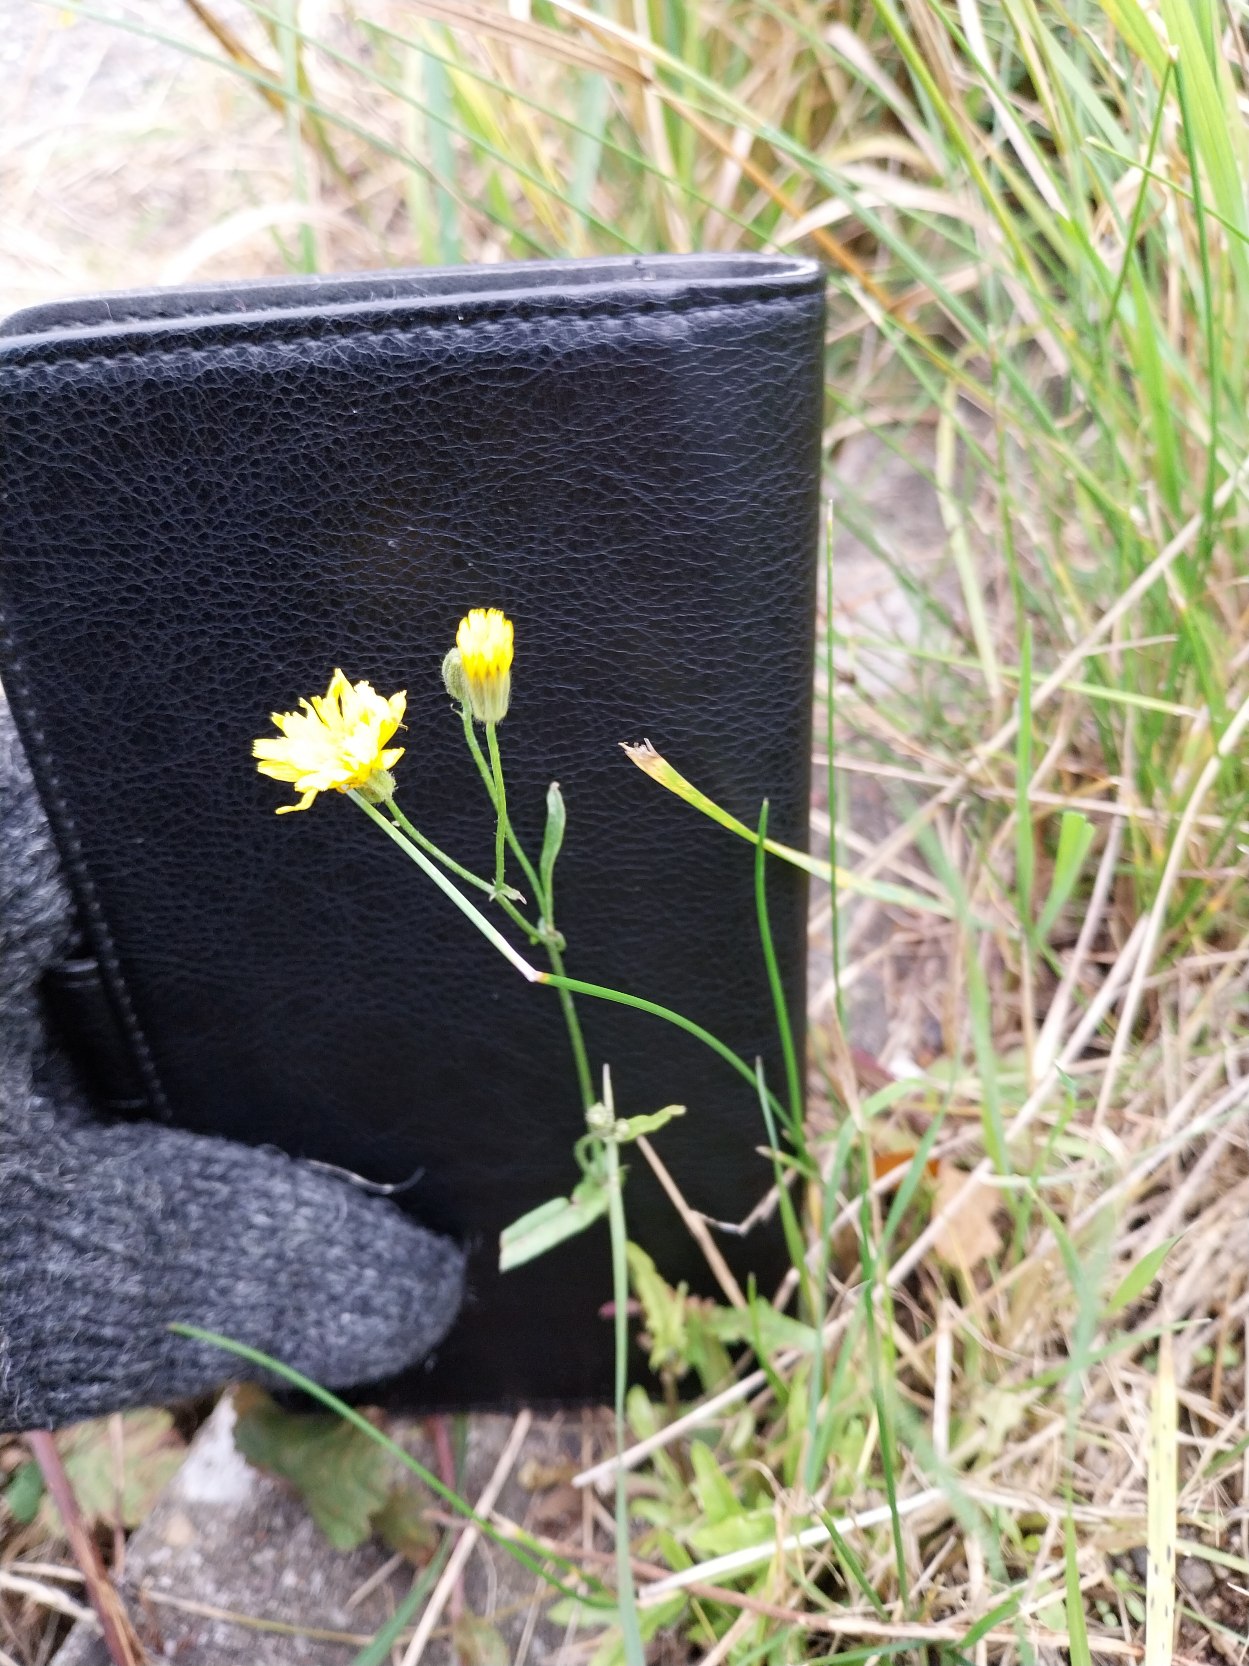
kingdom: Plantae
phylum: Tracheophyta
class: Magnoliopsida
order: Asterales
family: Asteraceae
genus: Crepis
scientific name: Crepis capillaris
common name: Grøn høgeskæg
